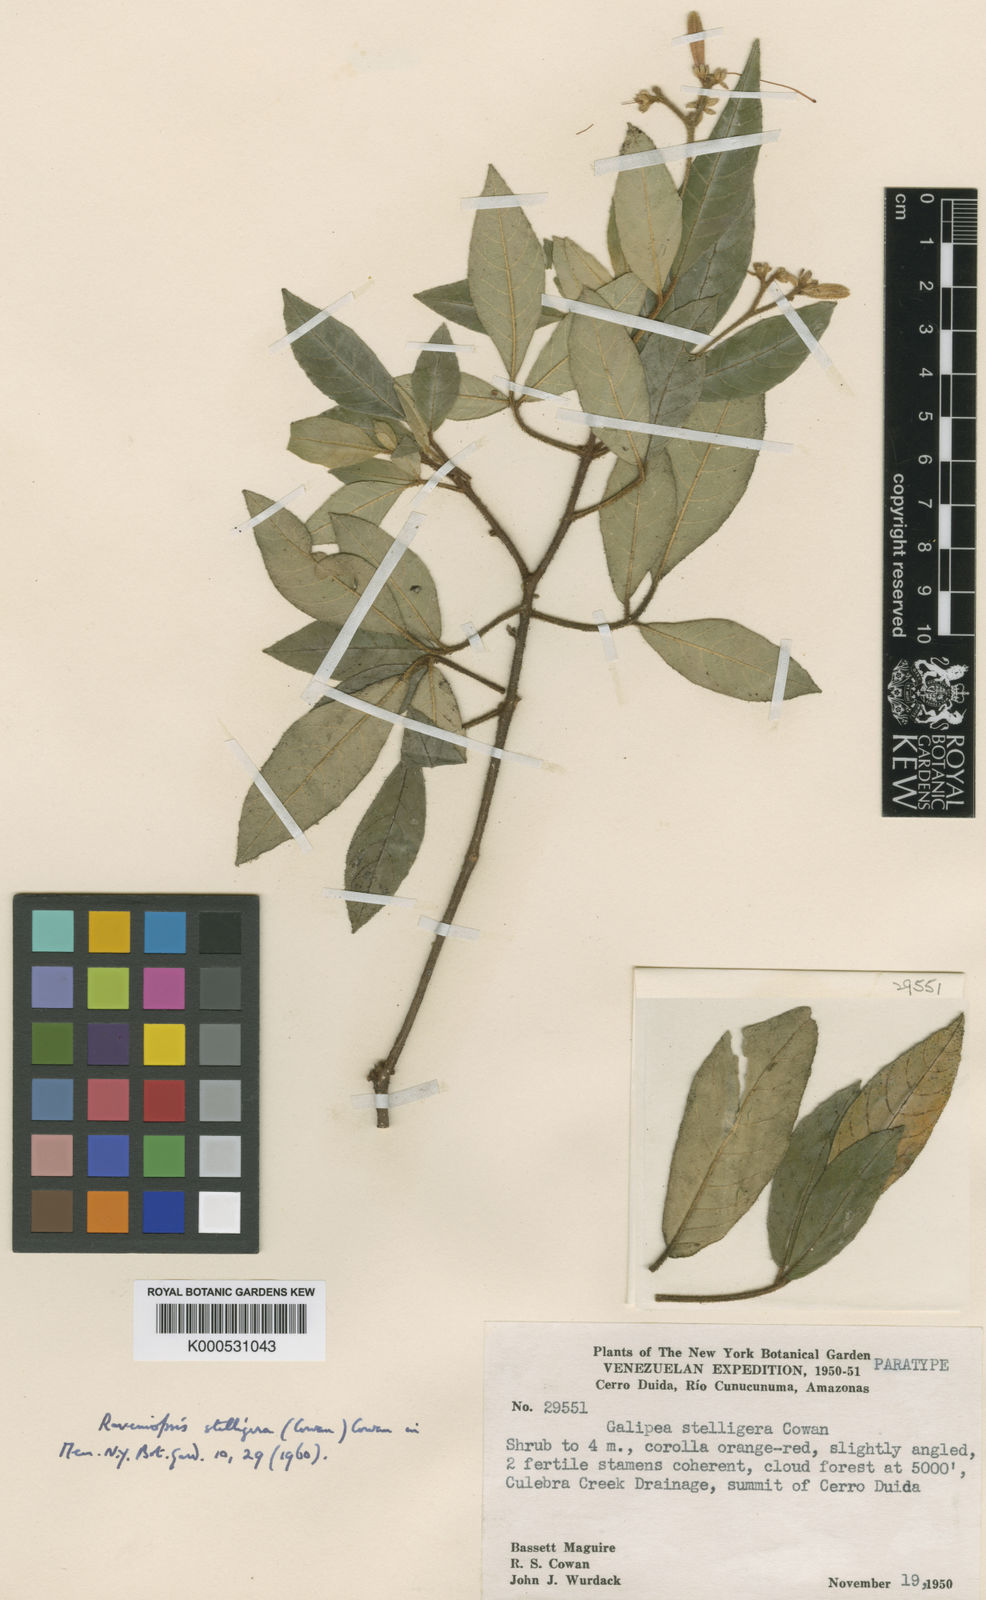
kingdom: Plantae
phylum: Tracheophyta
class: Magnoliopsida
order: Sapindales
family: Rutaceae
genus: Raveniopsis
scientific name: Raveniopsis stelligera
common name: Starbearing raveniopsis
